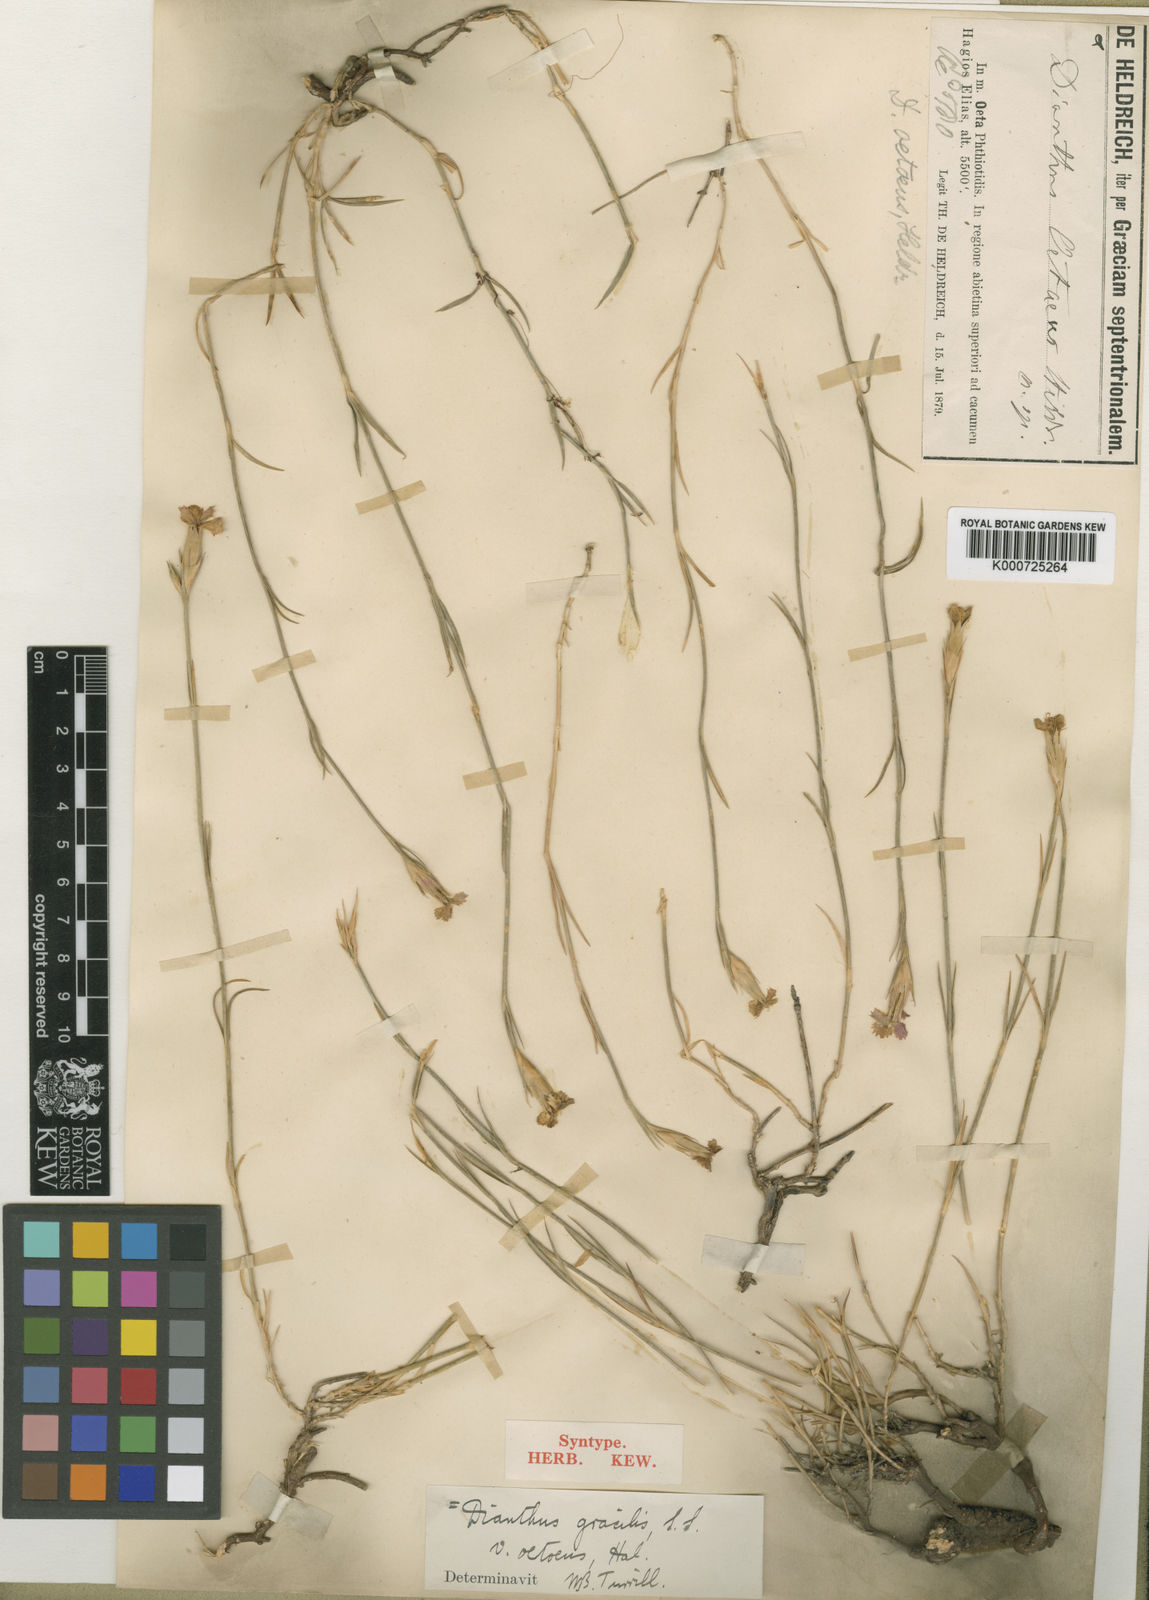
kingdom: Plantae
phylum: Tracheophyta
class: Magnoliopsida
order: Caryophyllales
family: Caryophyllaceae
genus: Dianthus
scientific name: Dianthus gracilis
